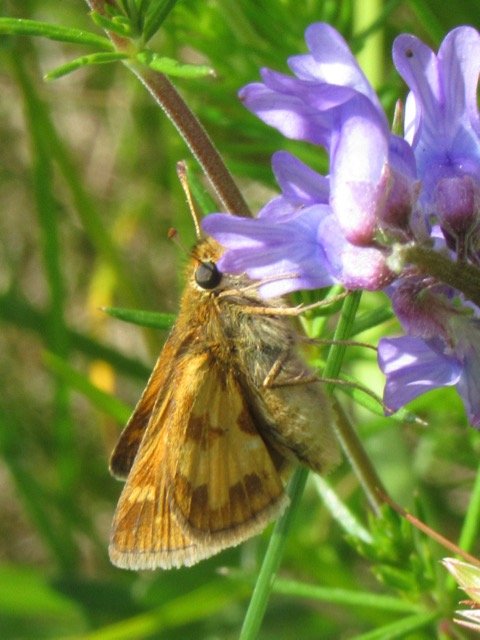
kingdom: Animalia
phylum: Arthropoda
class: Insecta
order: Lepidoptera
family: Hesperiidae
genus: Polites
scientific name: Polites coras
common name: Peck's Skipper
